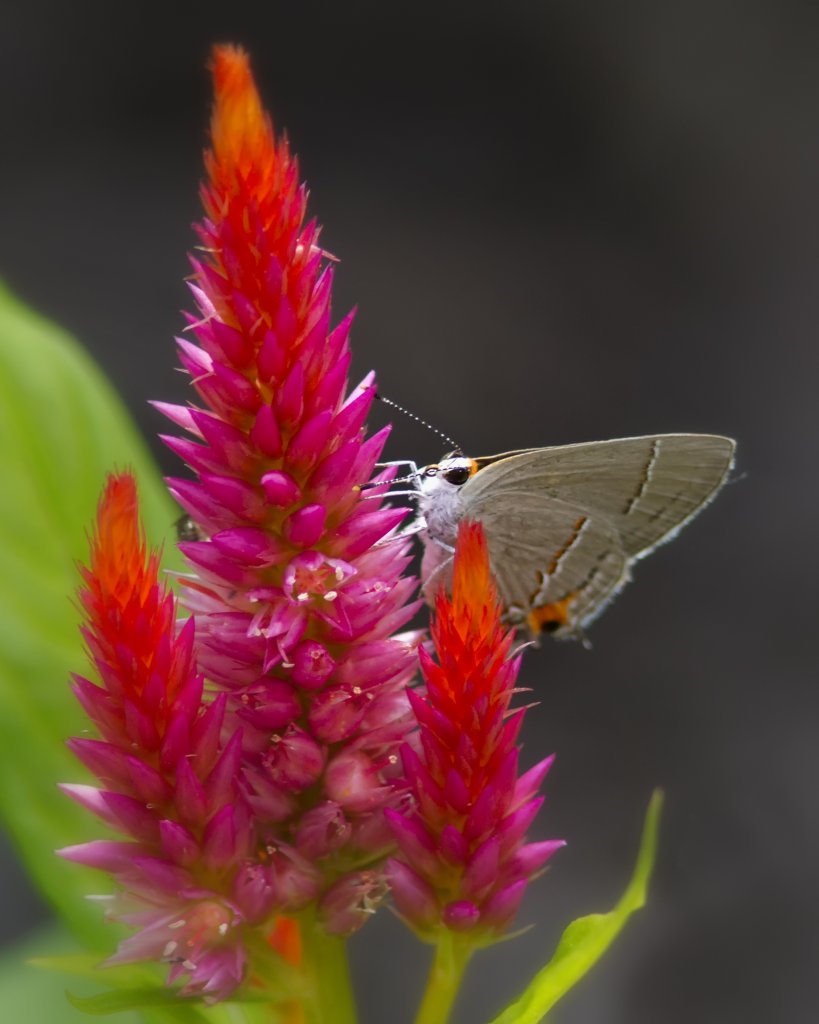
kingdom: Animalia
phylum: Arthropoda
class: Insecta
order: Lepidoptera
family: Lycaenidae
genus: Strymon
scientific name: Strymon melinus
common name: Gray Hairstreak
